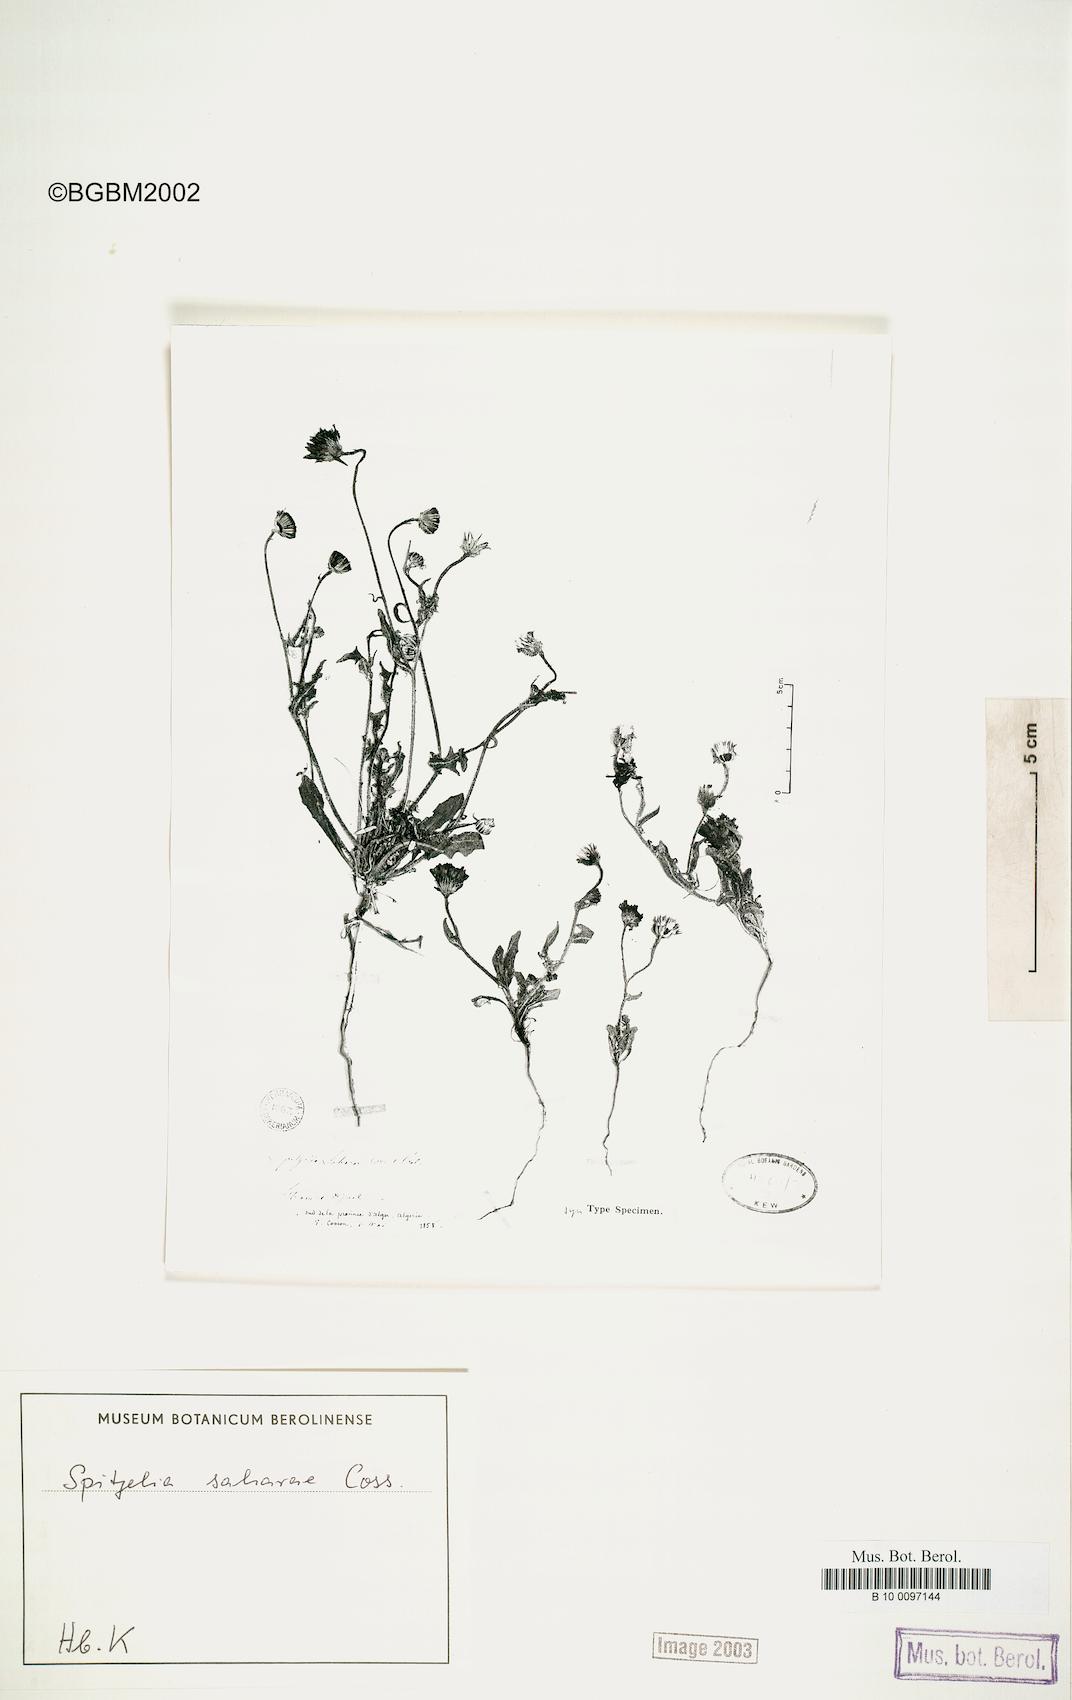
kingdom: Plantae
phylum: Tracheophyta
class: Magnoliopsida
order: Asterales
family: Asteraceae
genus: Picris
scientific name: Picris asplenioides
